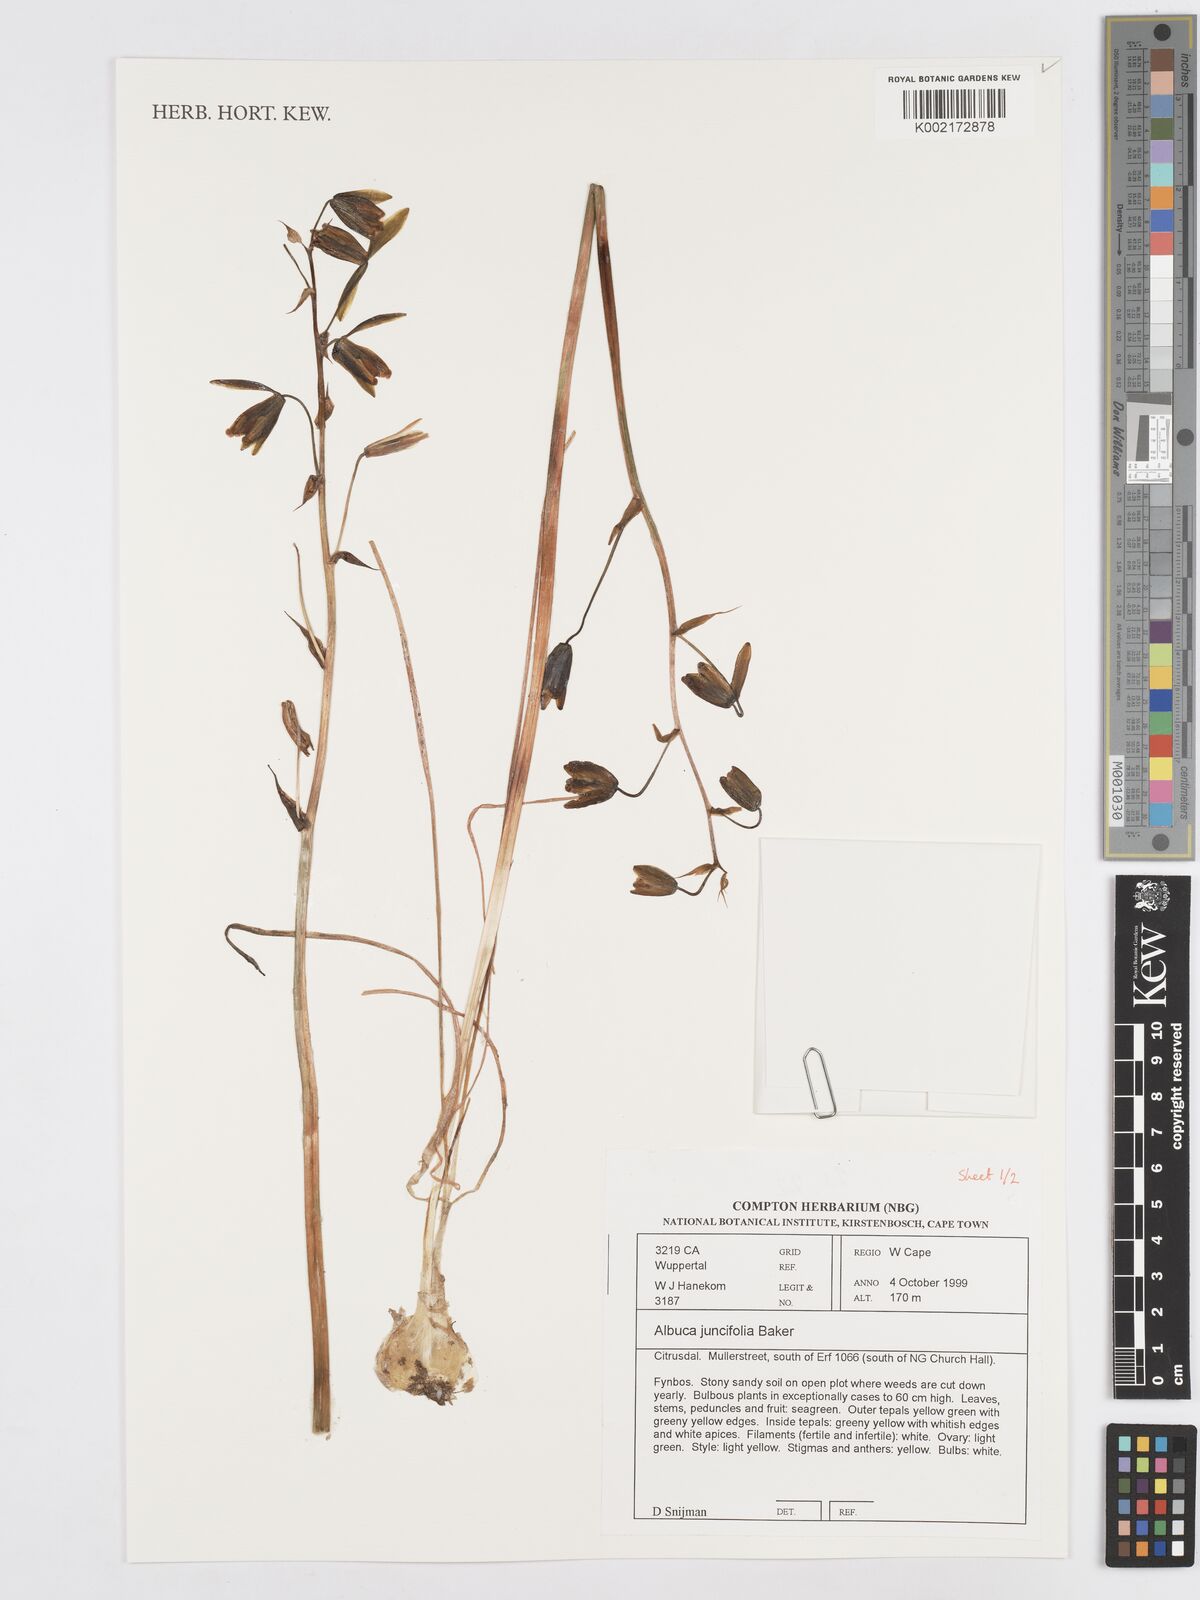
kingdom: Plantae
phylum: Tracheophyta
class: Liliopsida
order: Asparagales
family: Asparagaceae
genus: Albuca
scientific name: Albuca juncifolia
